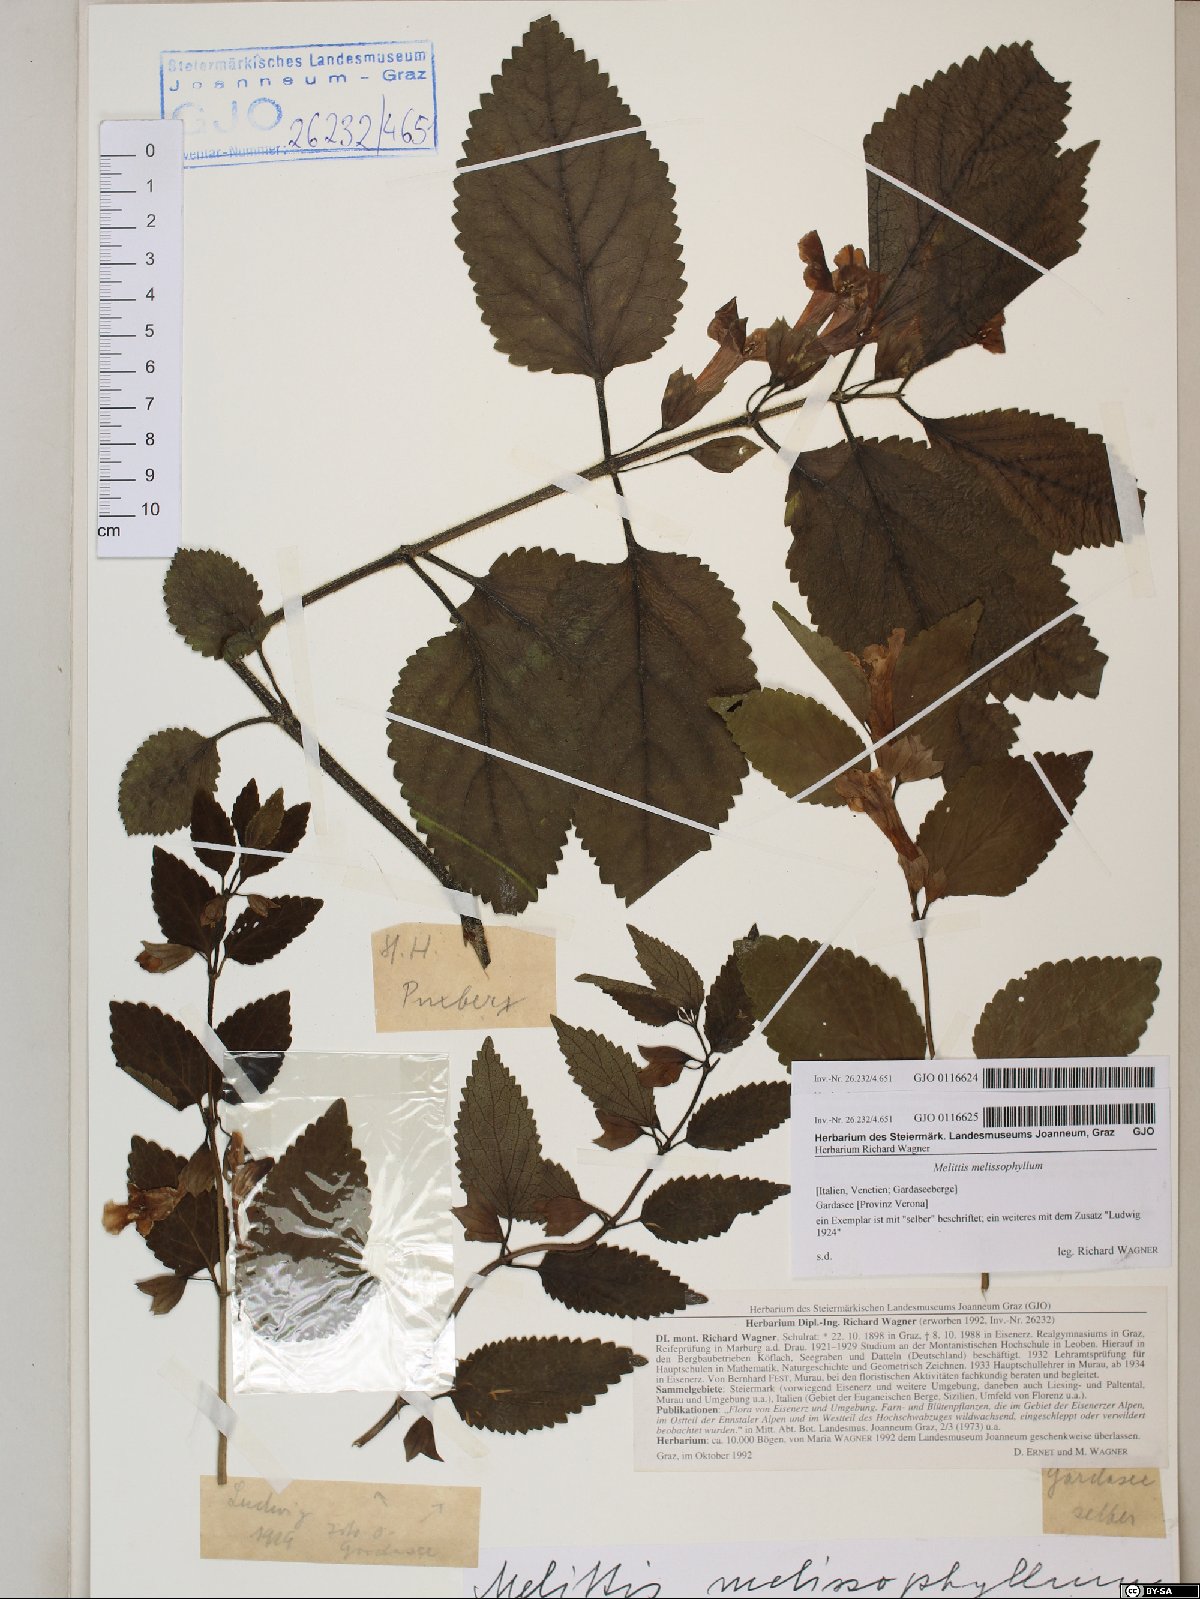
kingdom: Plantae
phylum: Tracheophyta
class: Magnoliopsida
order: Lamiales
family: Lamiaceae
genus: Melittis
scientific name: Melittis melissophyllum
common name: Bastard balm
